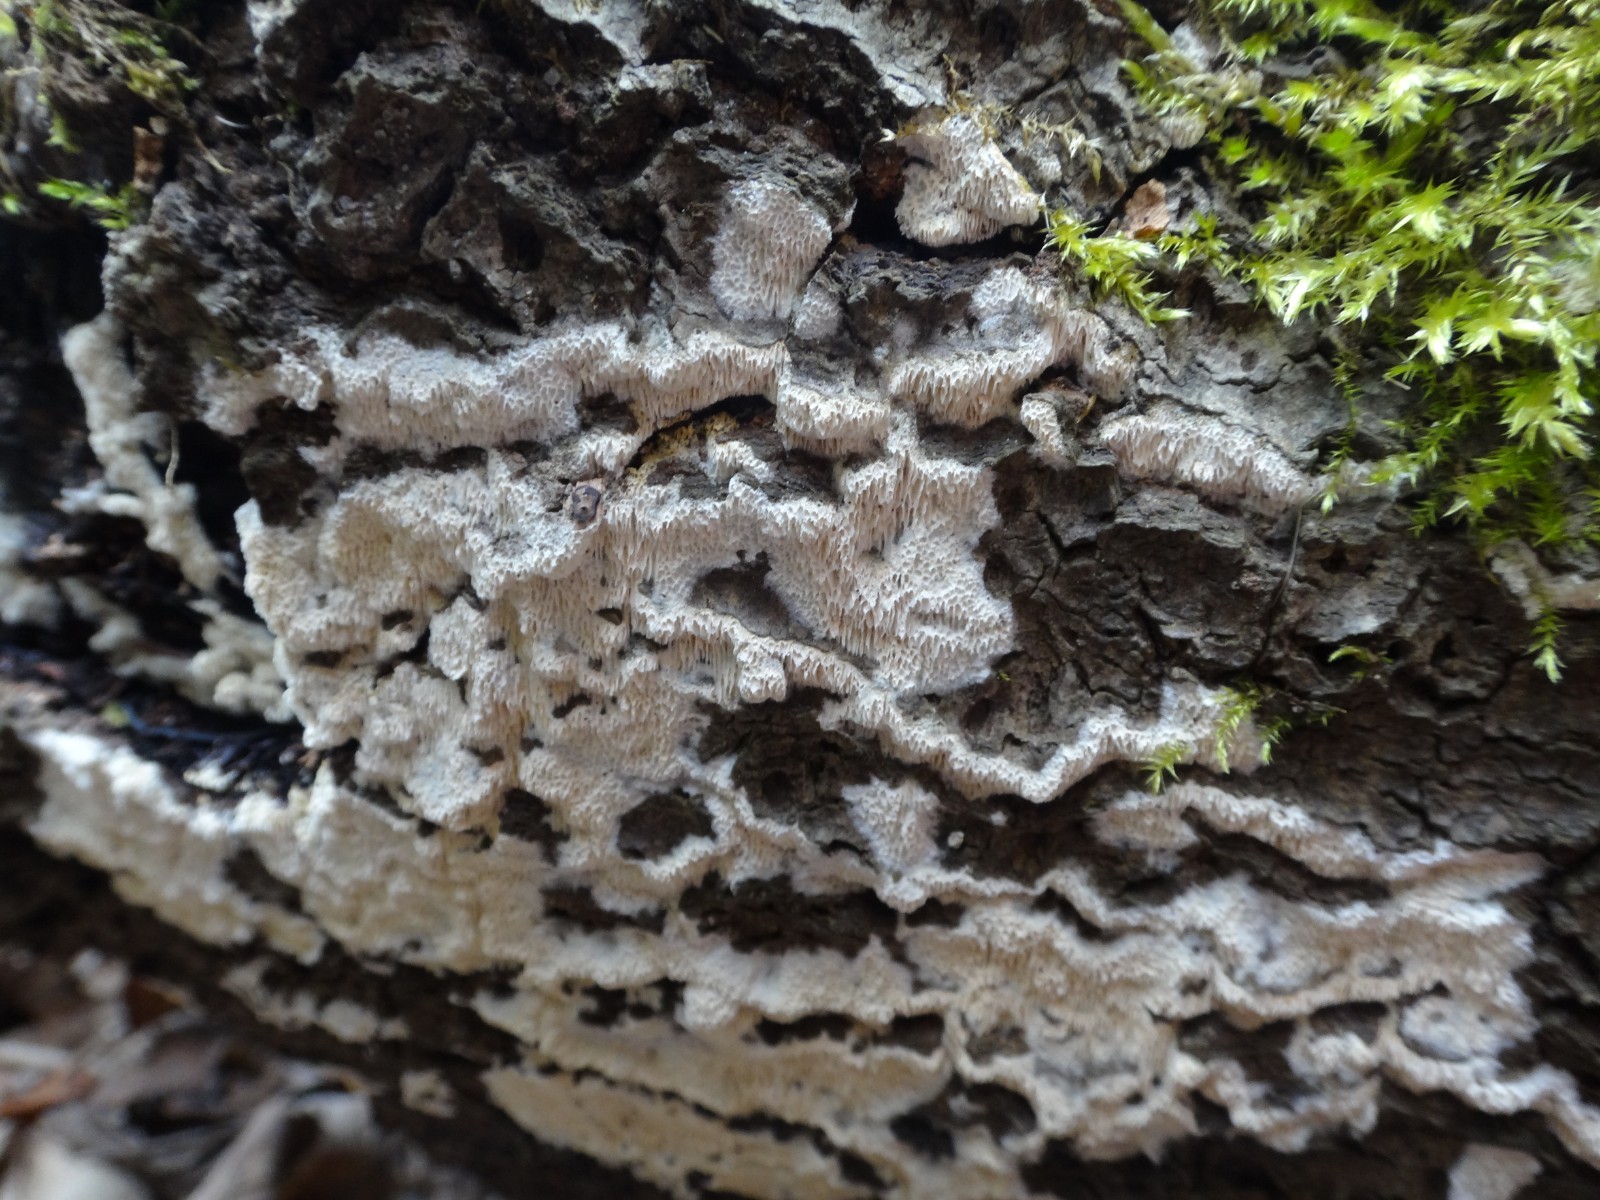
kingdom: Fungi
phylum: Basidiomycota
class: Agaricomycetes
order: Hymenochaetales
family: Schizoporaceae
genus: Xylodon
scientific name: Xylodon subtropicus
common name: labyrint-tandsvamp
